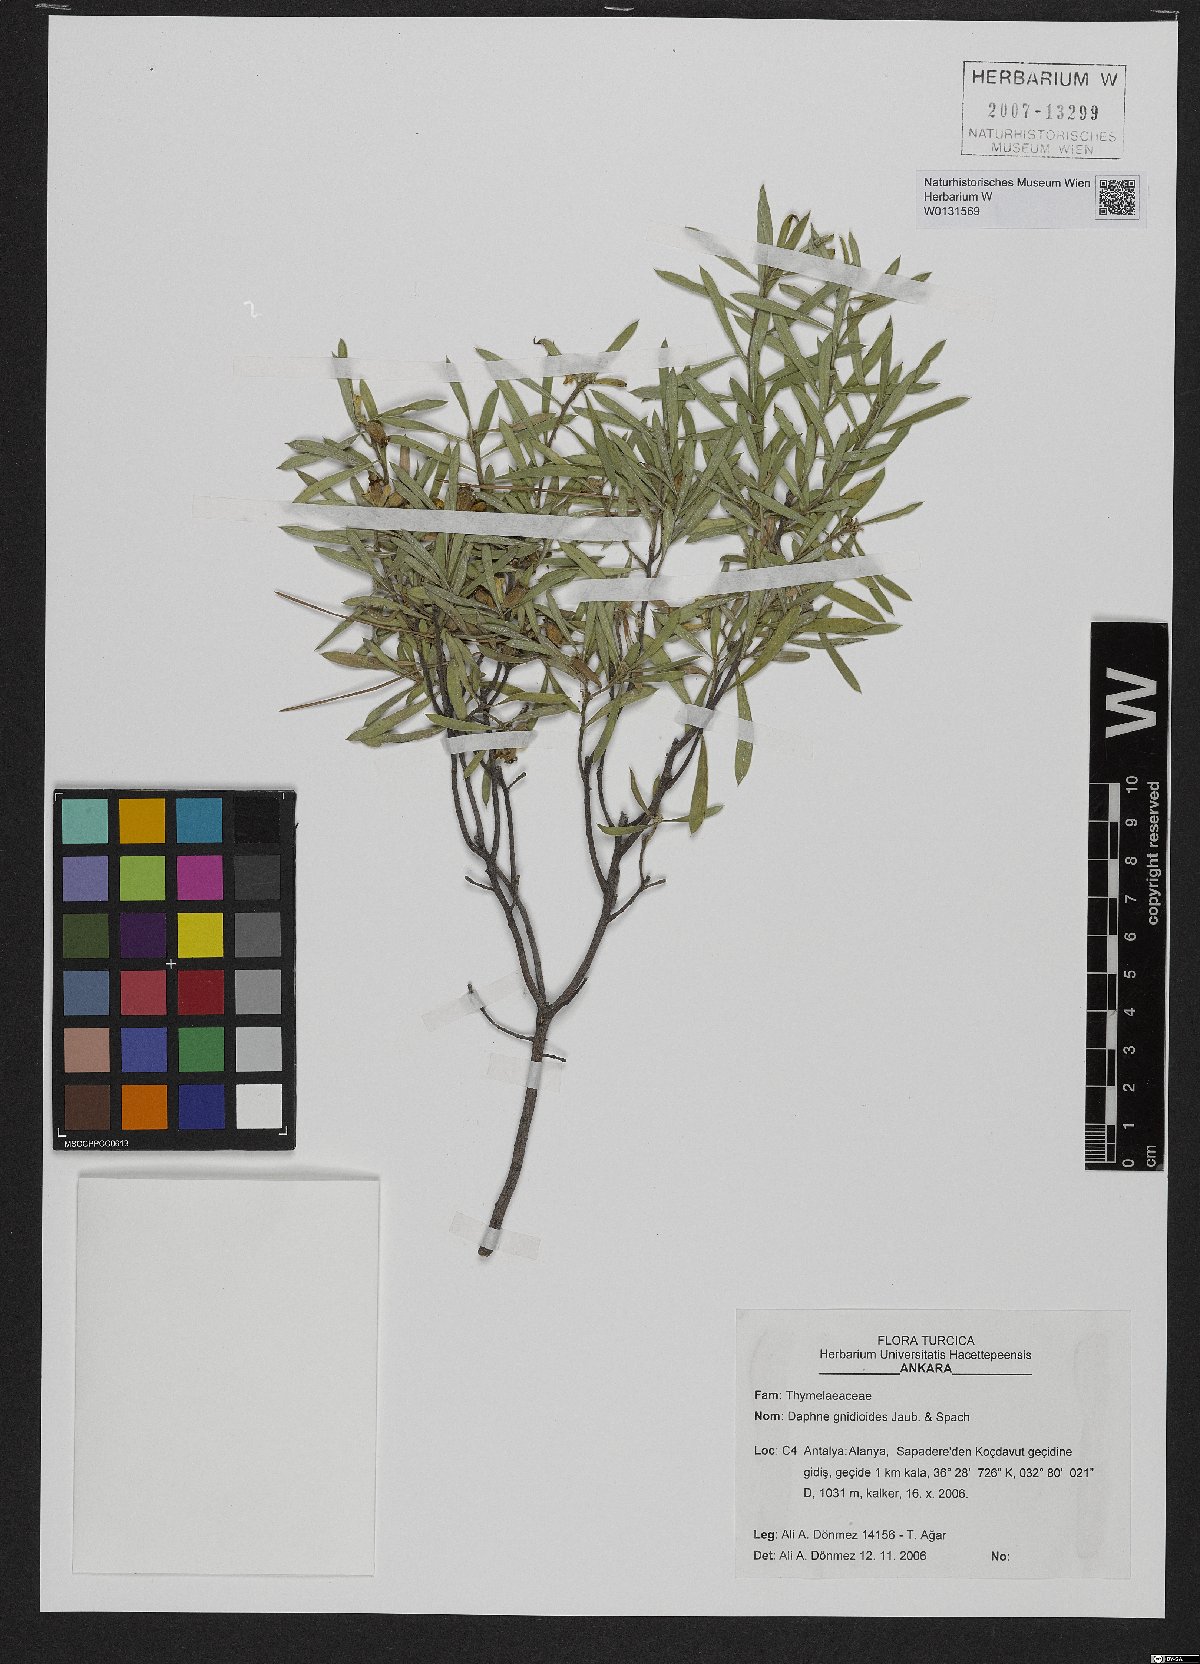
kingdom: Plantae
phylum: Tracheophyta
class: Magnoliopsida
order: Malvales
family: Thymelaeaceae
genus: Daphne
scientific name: Daphne gnidioides
